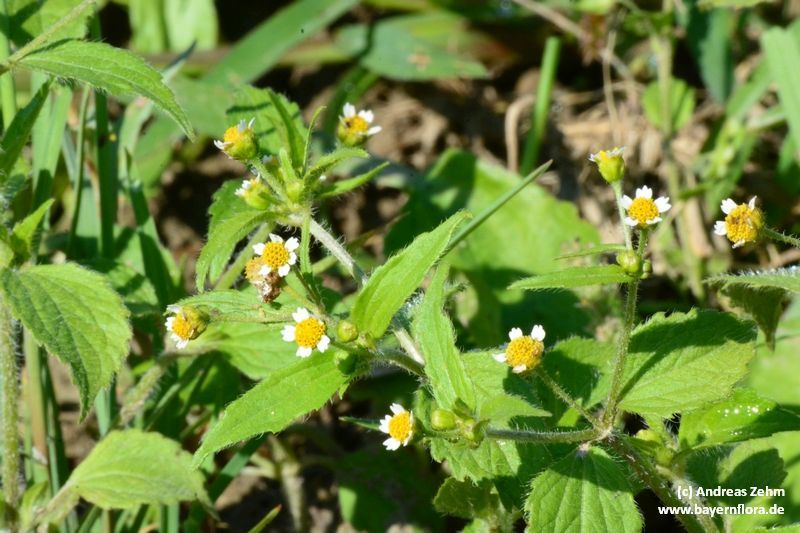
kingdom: Plantae
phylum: Tracheophyta
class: Magnoliopsida
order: Asterales
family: Asteraceae
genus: Galinsoga
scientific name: Galinsoga quadriradiata
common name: Shaggy soldier
